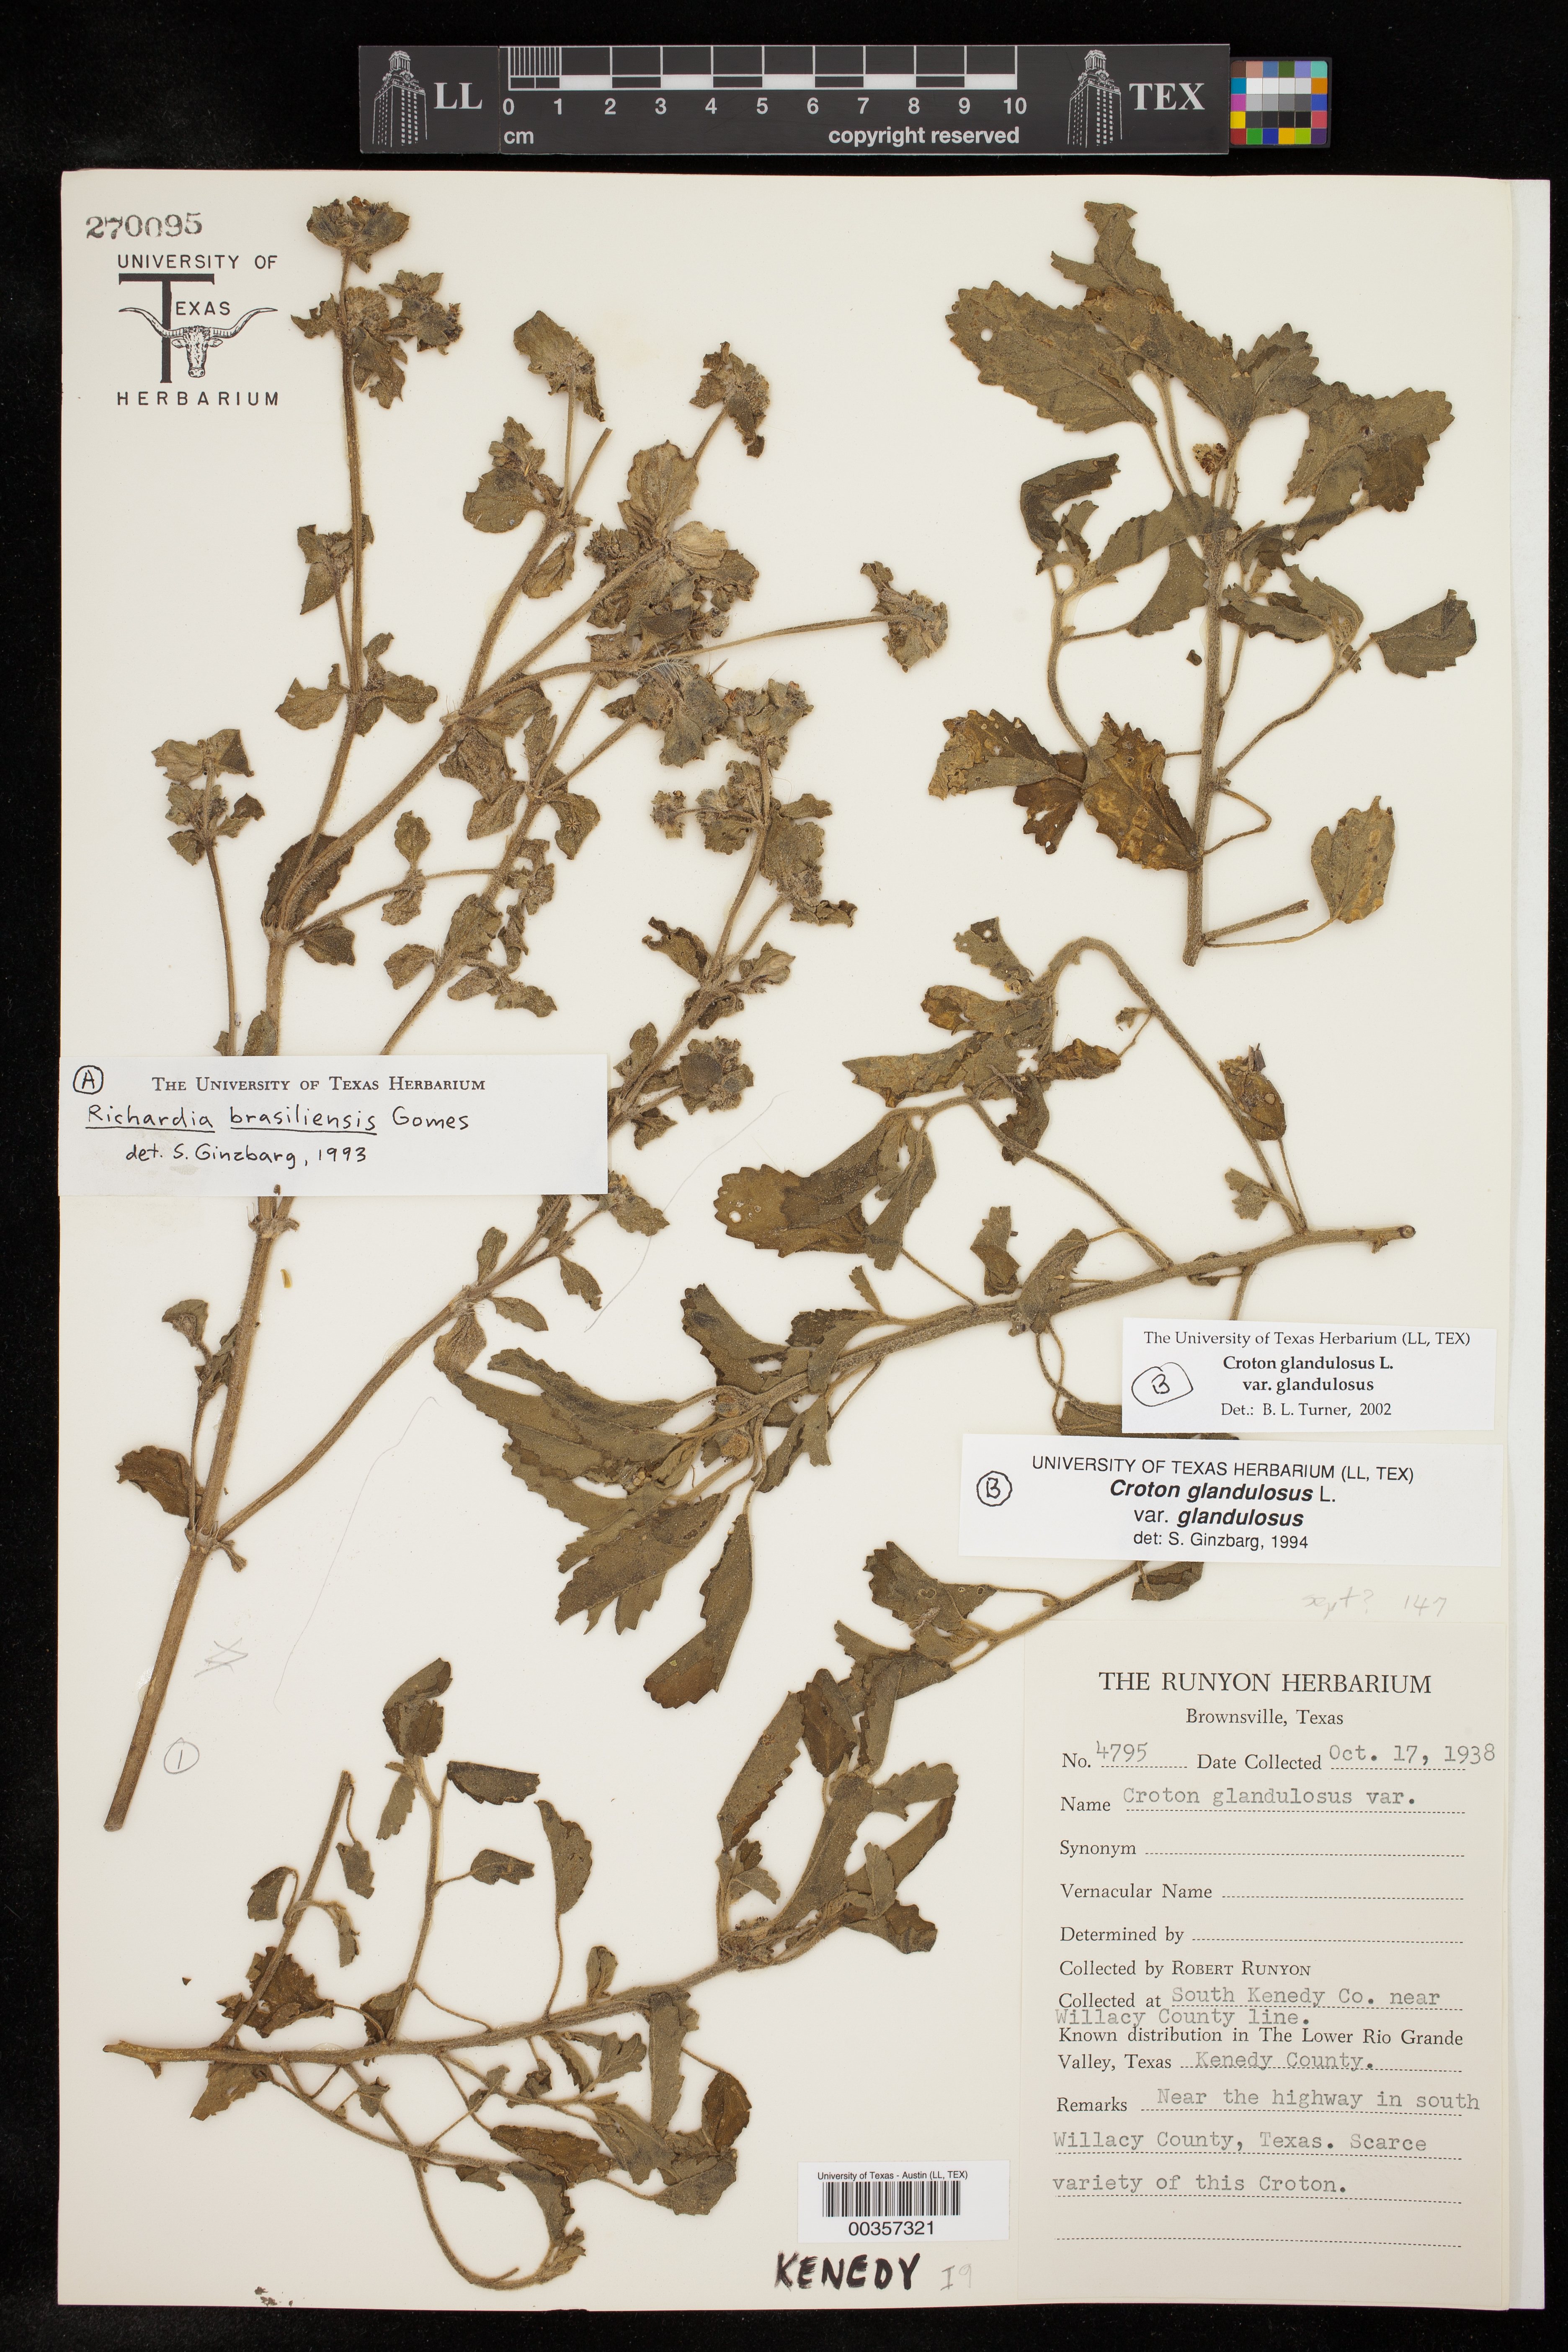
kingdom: Plantae
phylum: Tracheophyta
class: Magnoliopsida
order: Malpighiales
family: Euphorbiaceae
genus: Croton
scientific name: Croton glandulosus
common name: Tropic croton
